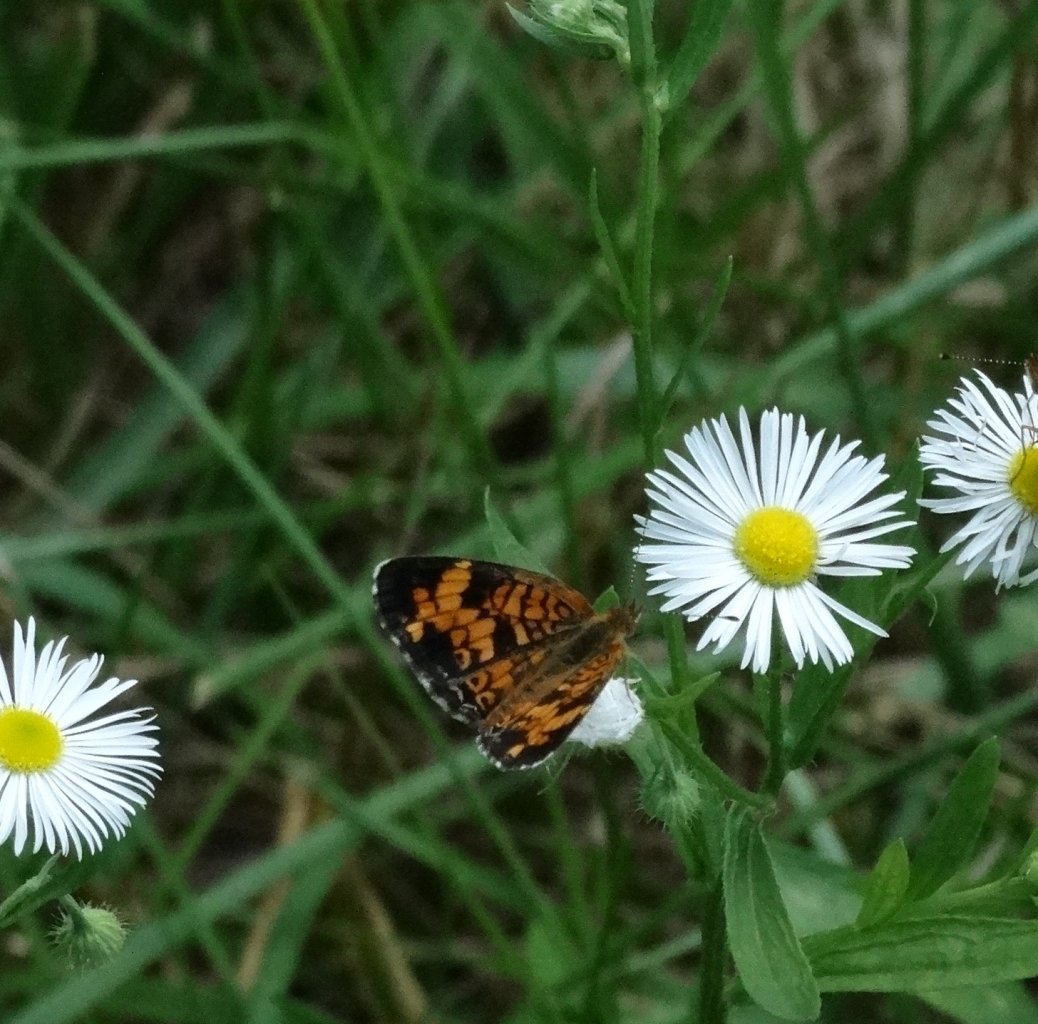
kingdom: Animalia
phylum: Arthropoda
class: Insecta
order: Lepidoptera
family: Nymphalidae
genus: Phyciodes
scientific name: Phyciodes tharos
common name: Pearl Crescent
